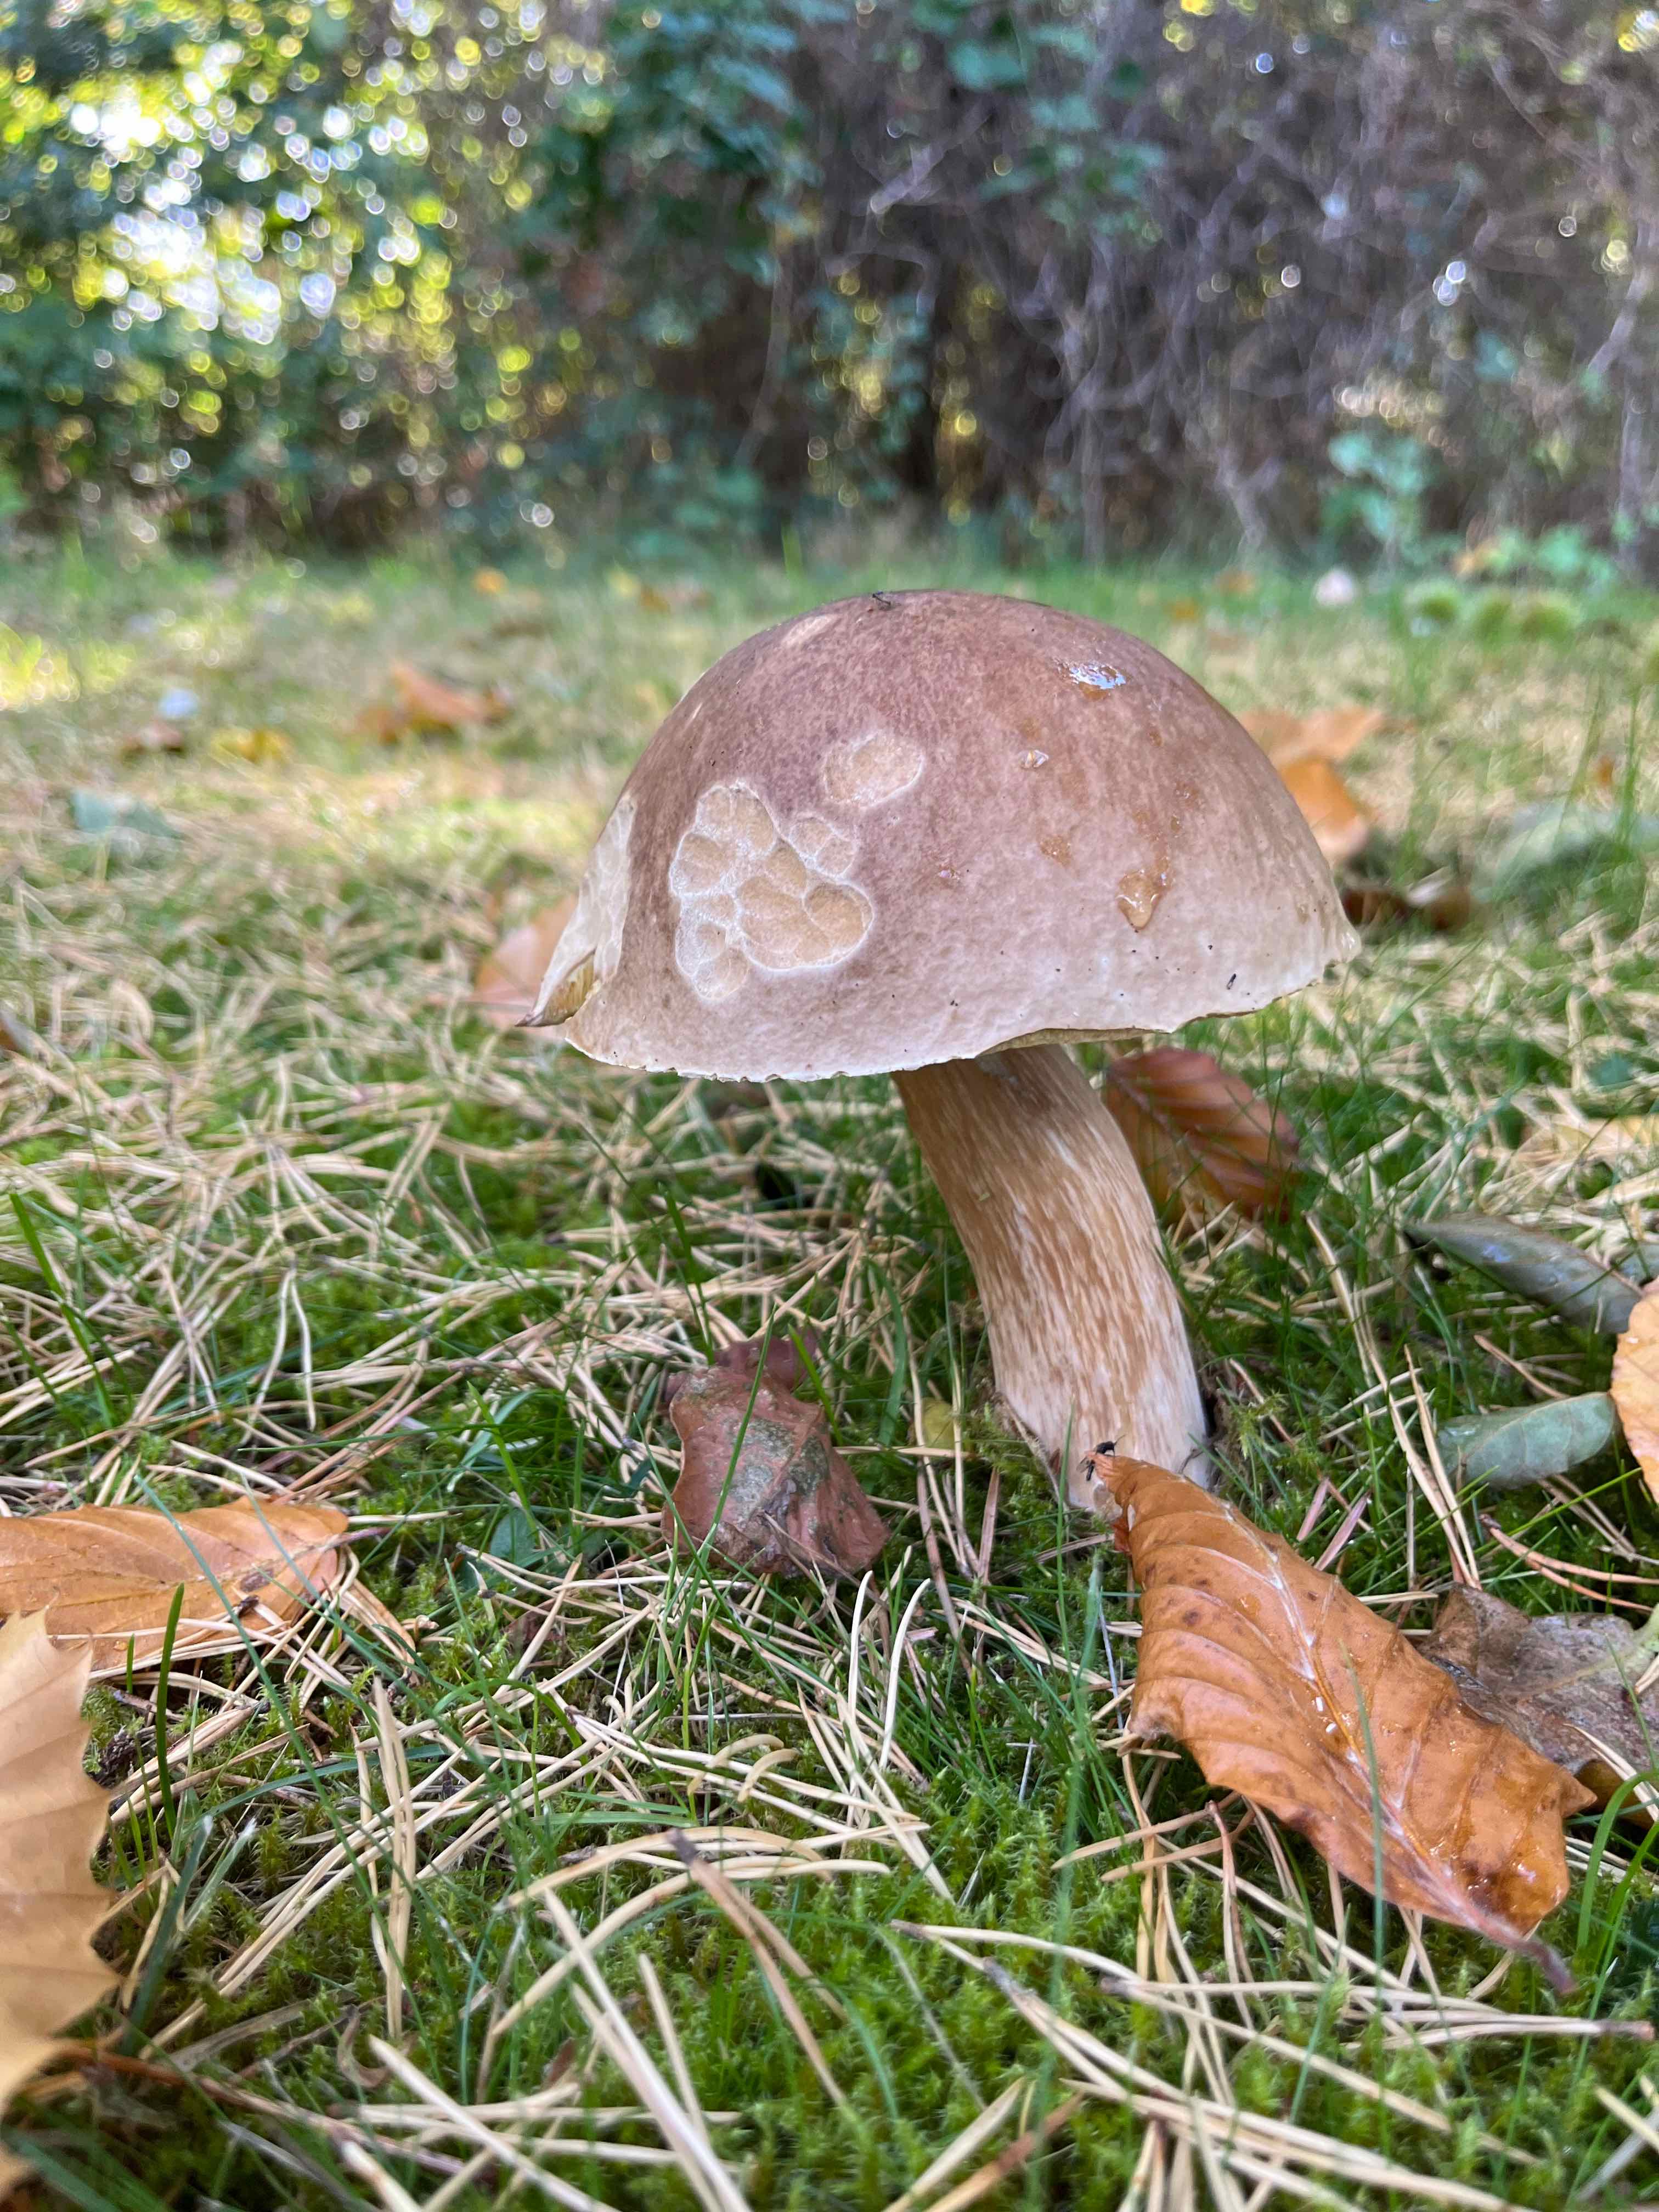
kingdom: Fungi
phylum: Basidiomycota
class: Agaricomycetes
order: Boletales
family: Boletaceae
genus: Boletus
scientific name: Boletus edulis
